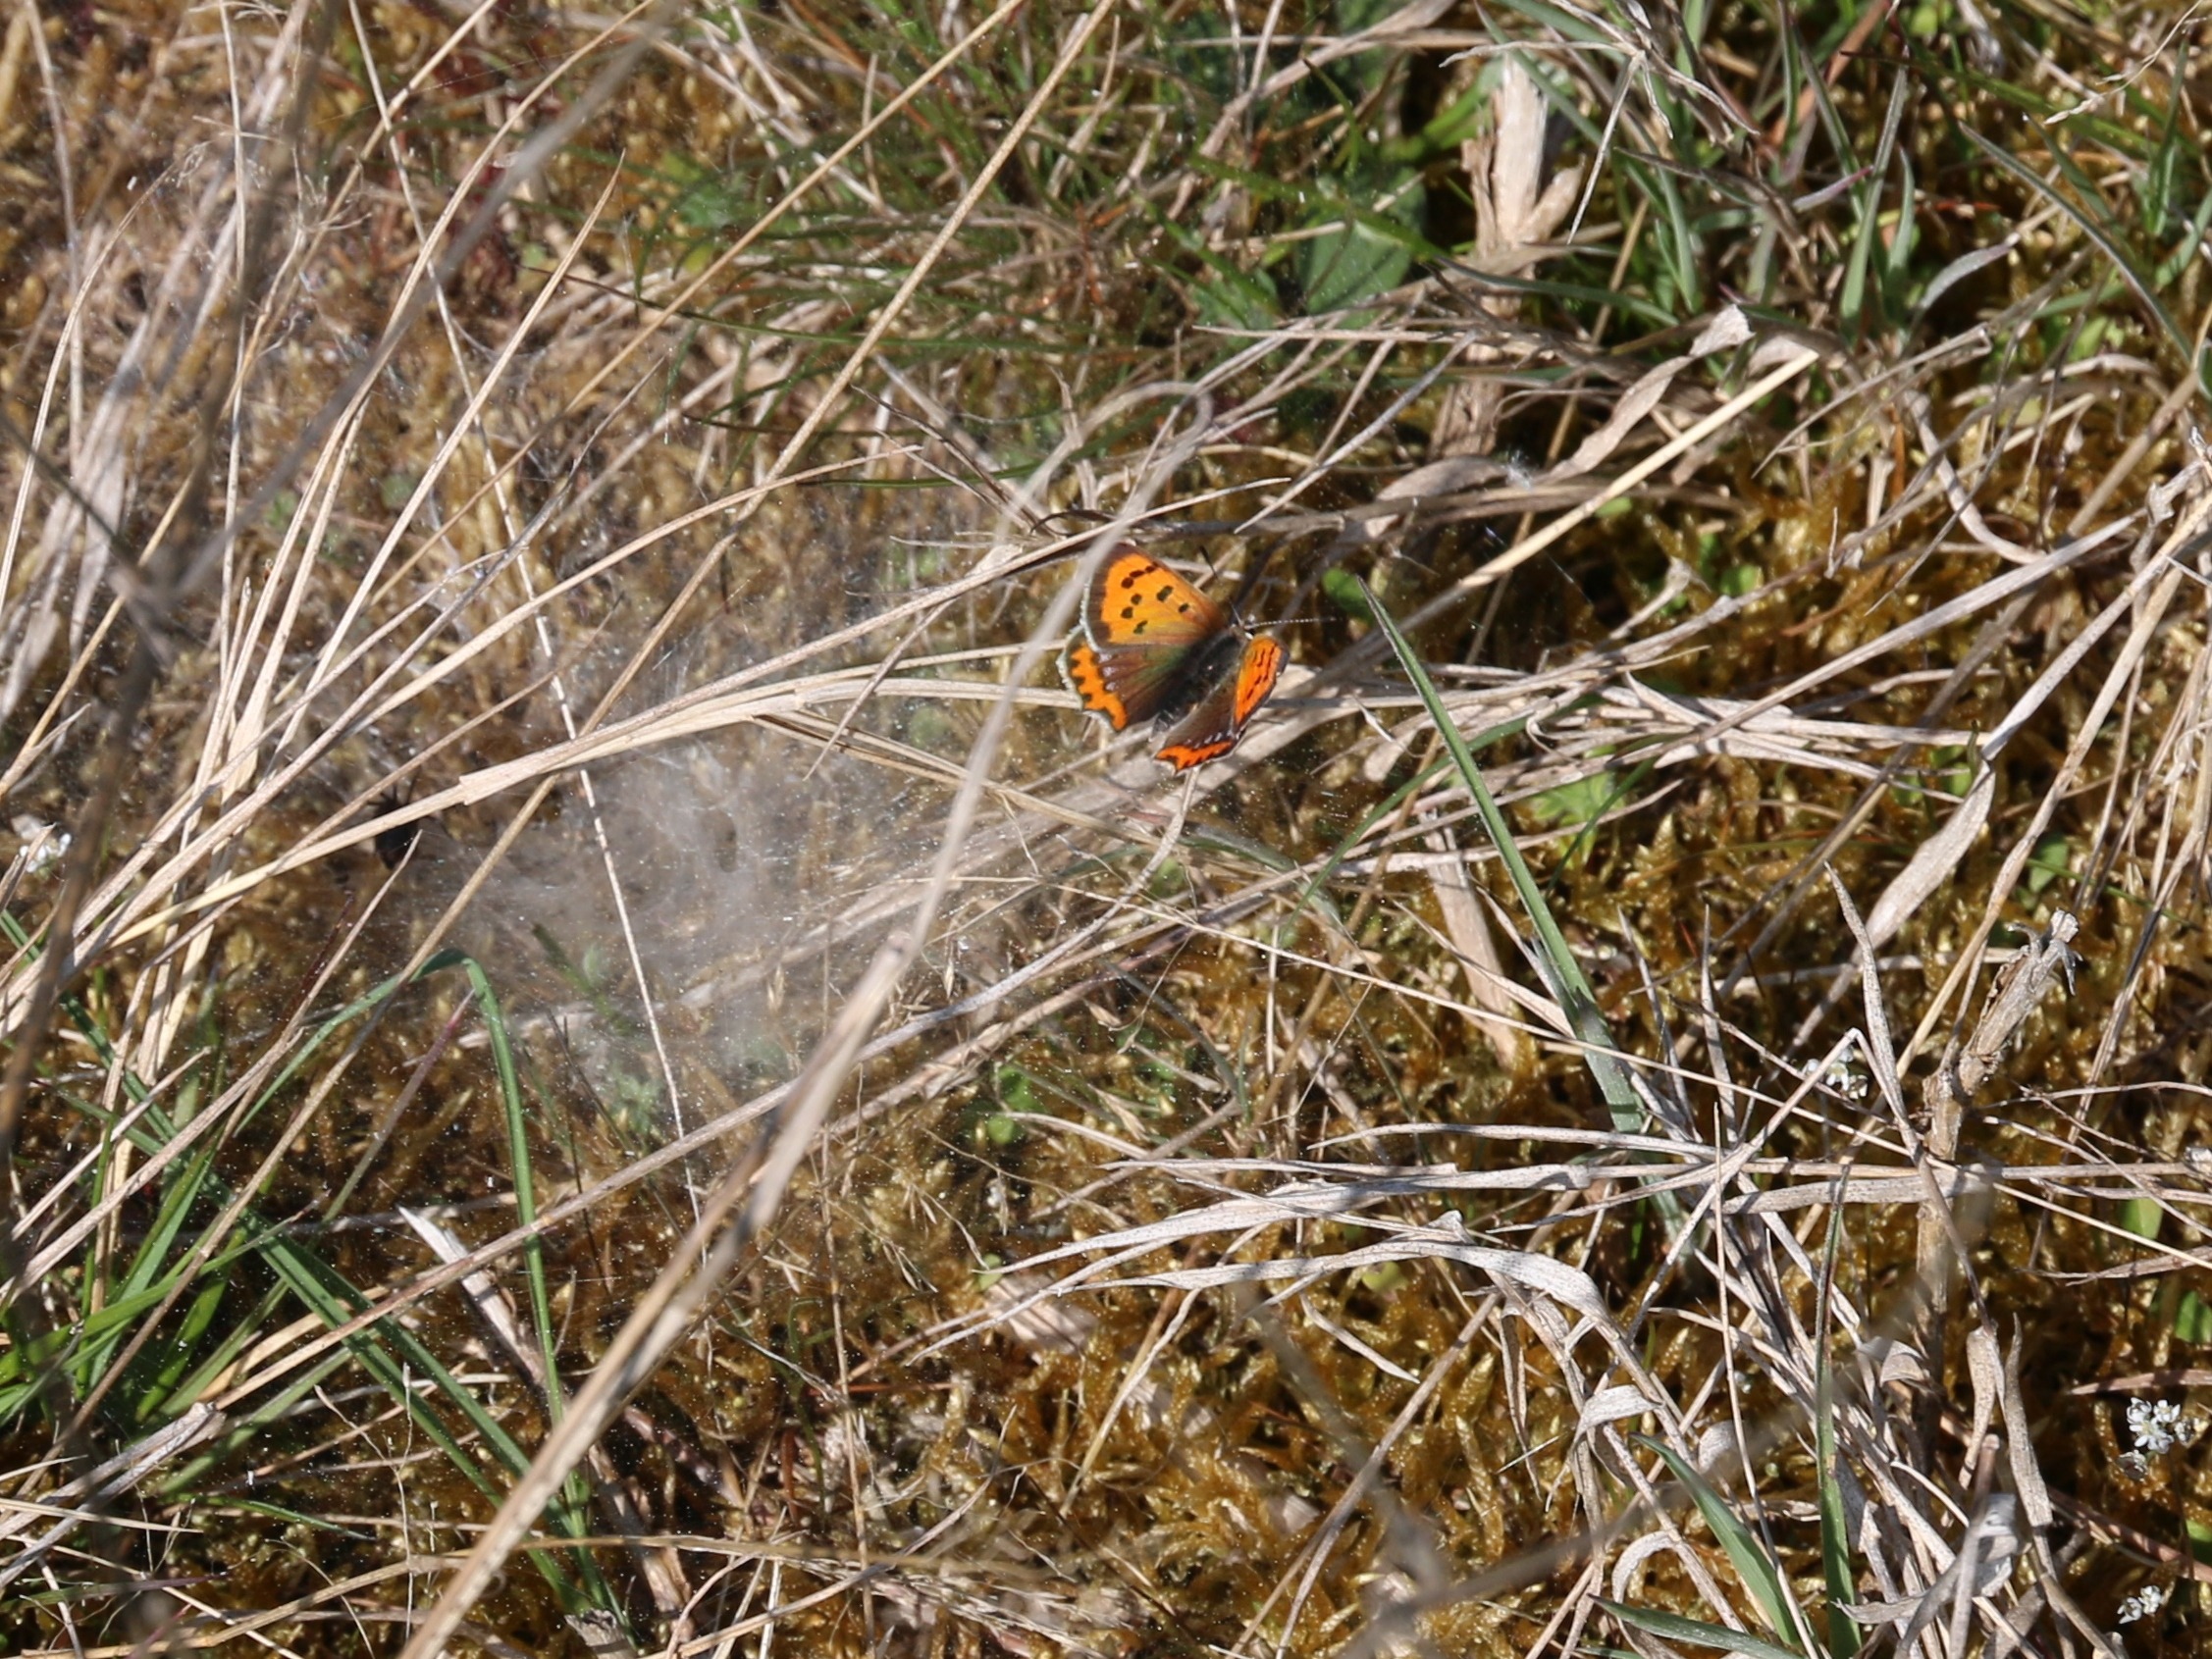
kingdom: Animalia
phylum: Arthropoda
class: Insecta
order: Lepidoptera
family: Lycaenidae
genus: Lycaena
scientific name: Lycaena phlaeas
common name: Lille ildfugl
